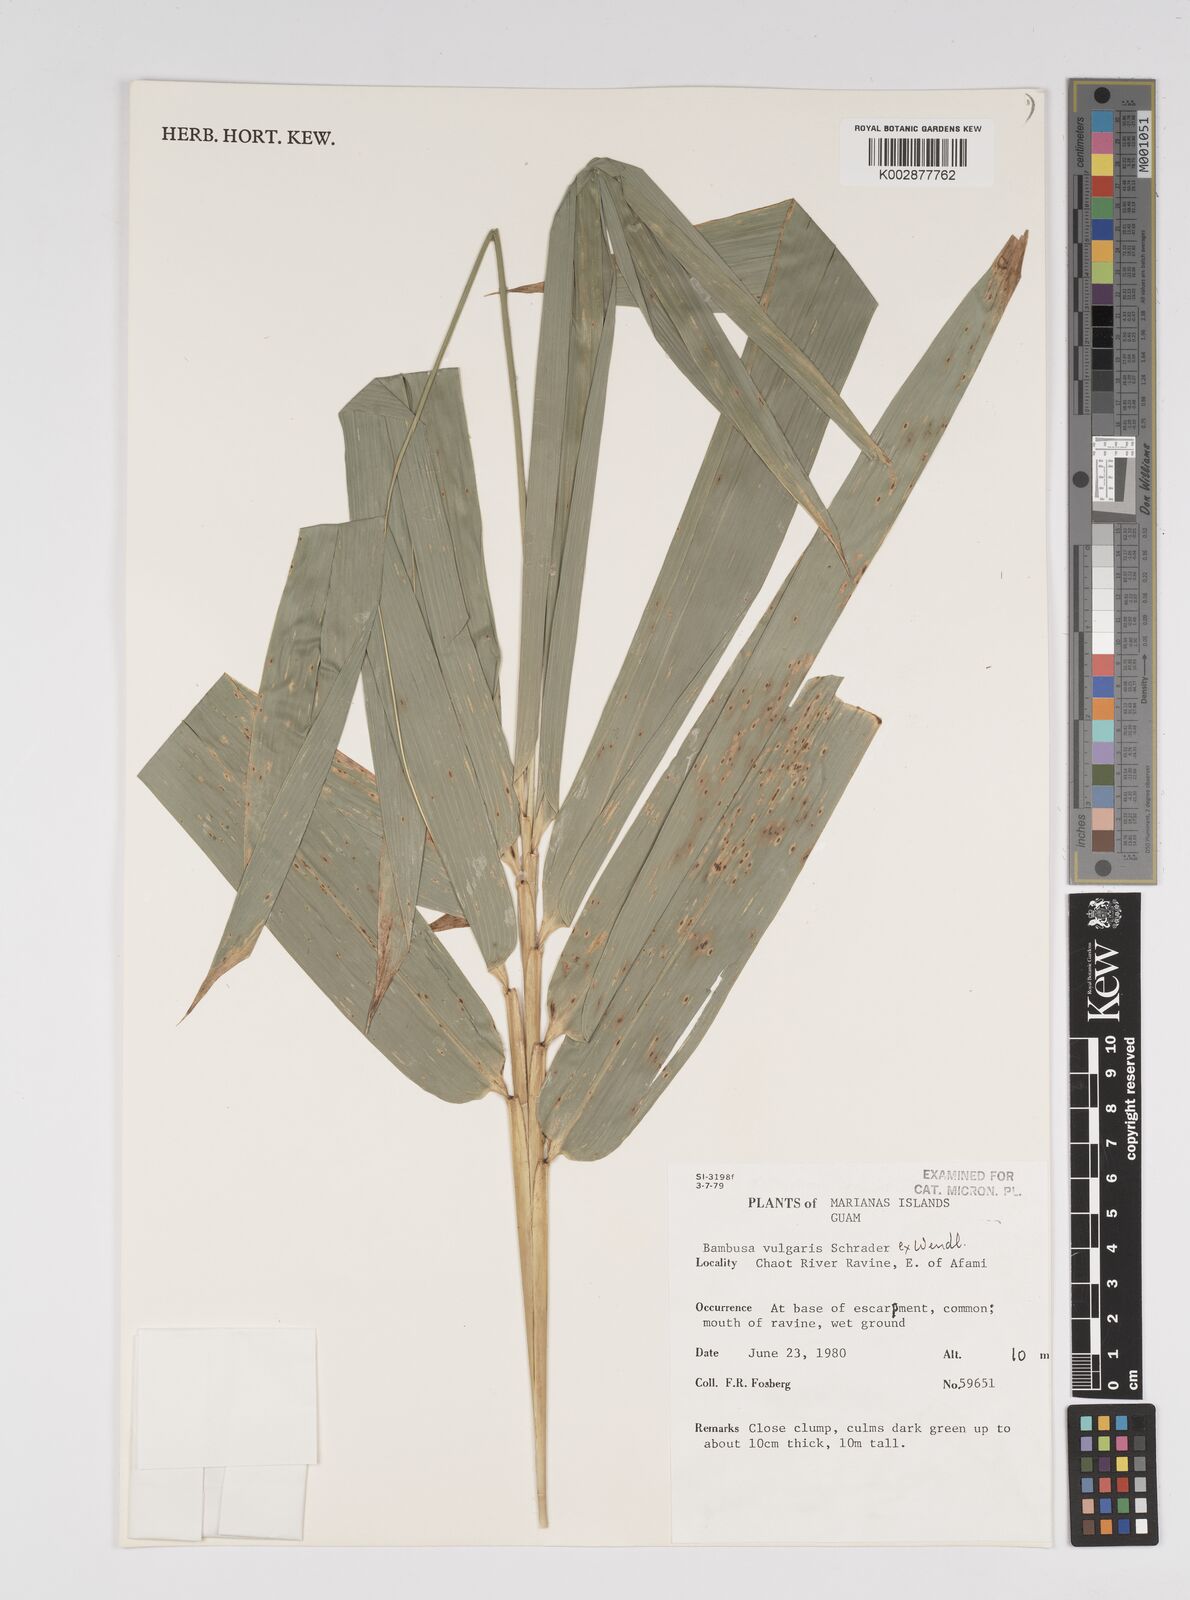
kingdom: Plantae
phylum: Tracheophyta
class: Liliopsida
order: Poales
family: Poaceae
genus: Bambusa
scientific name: Bambusa
